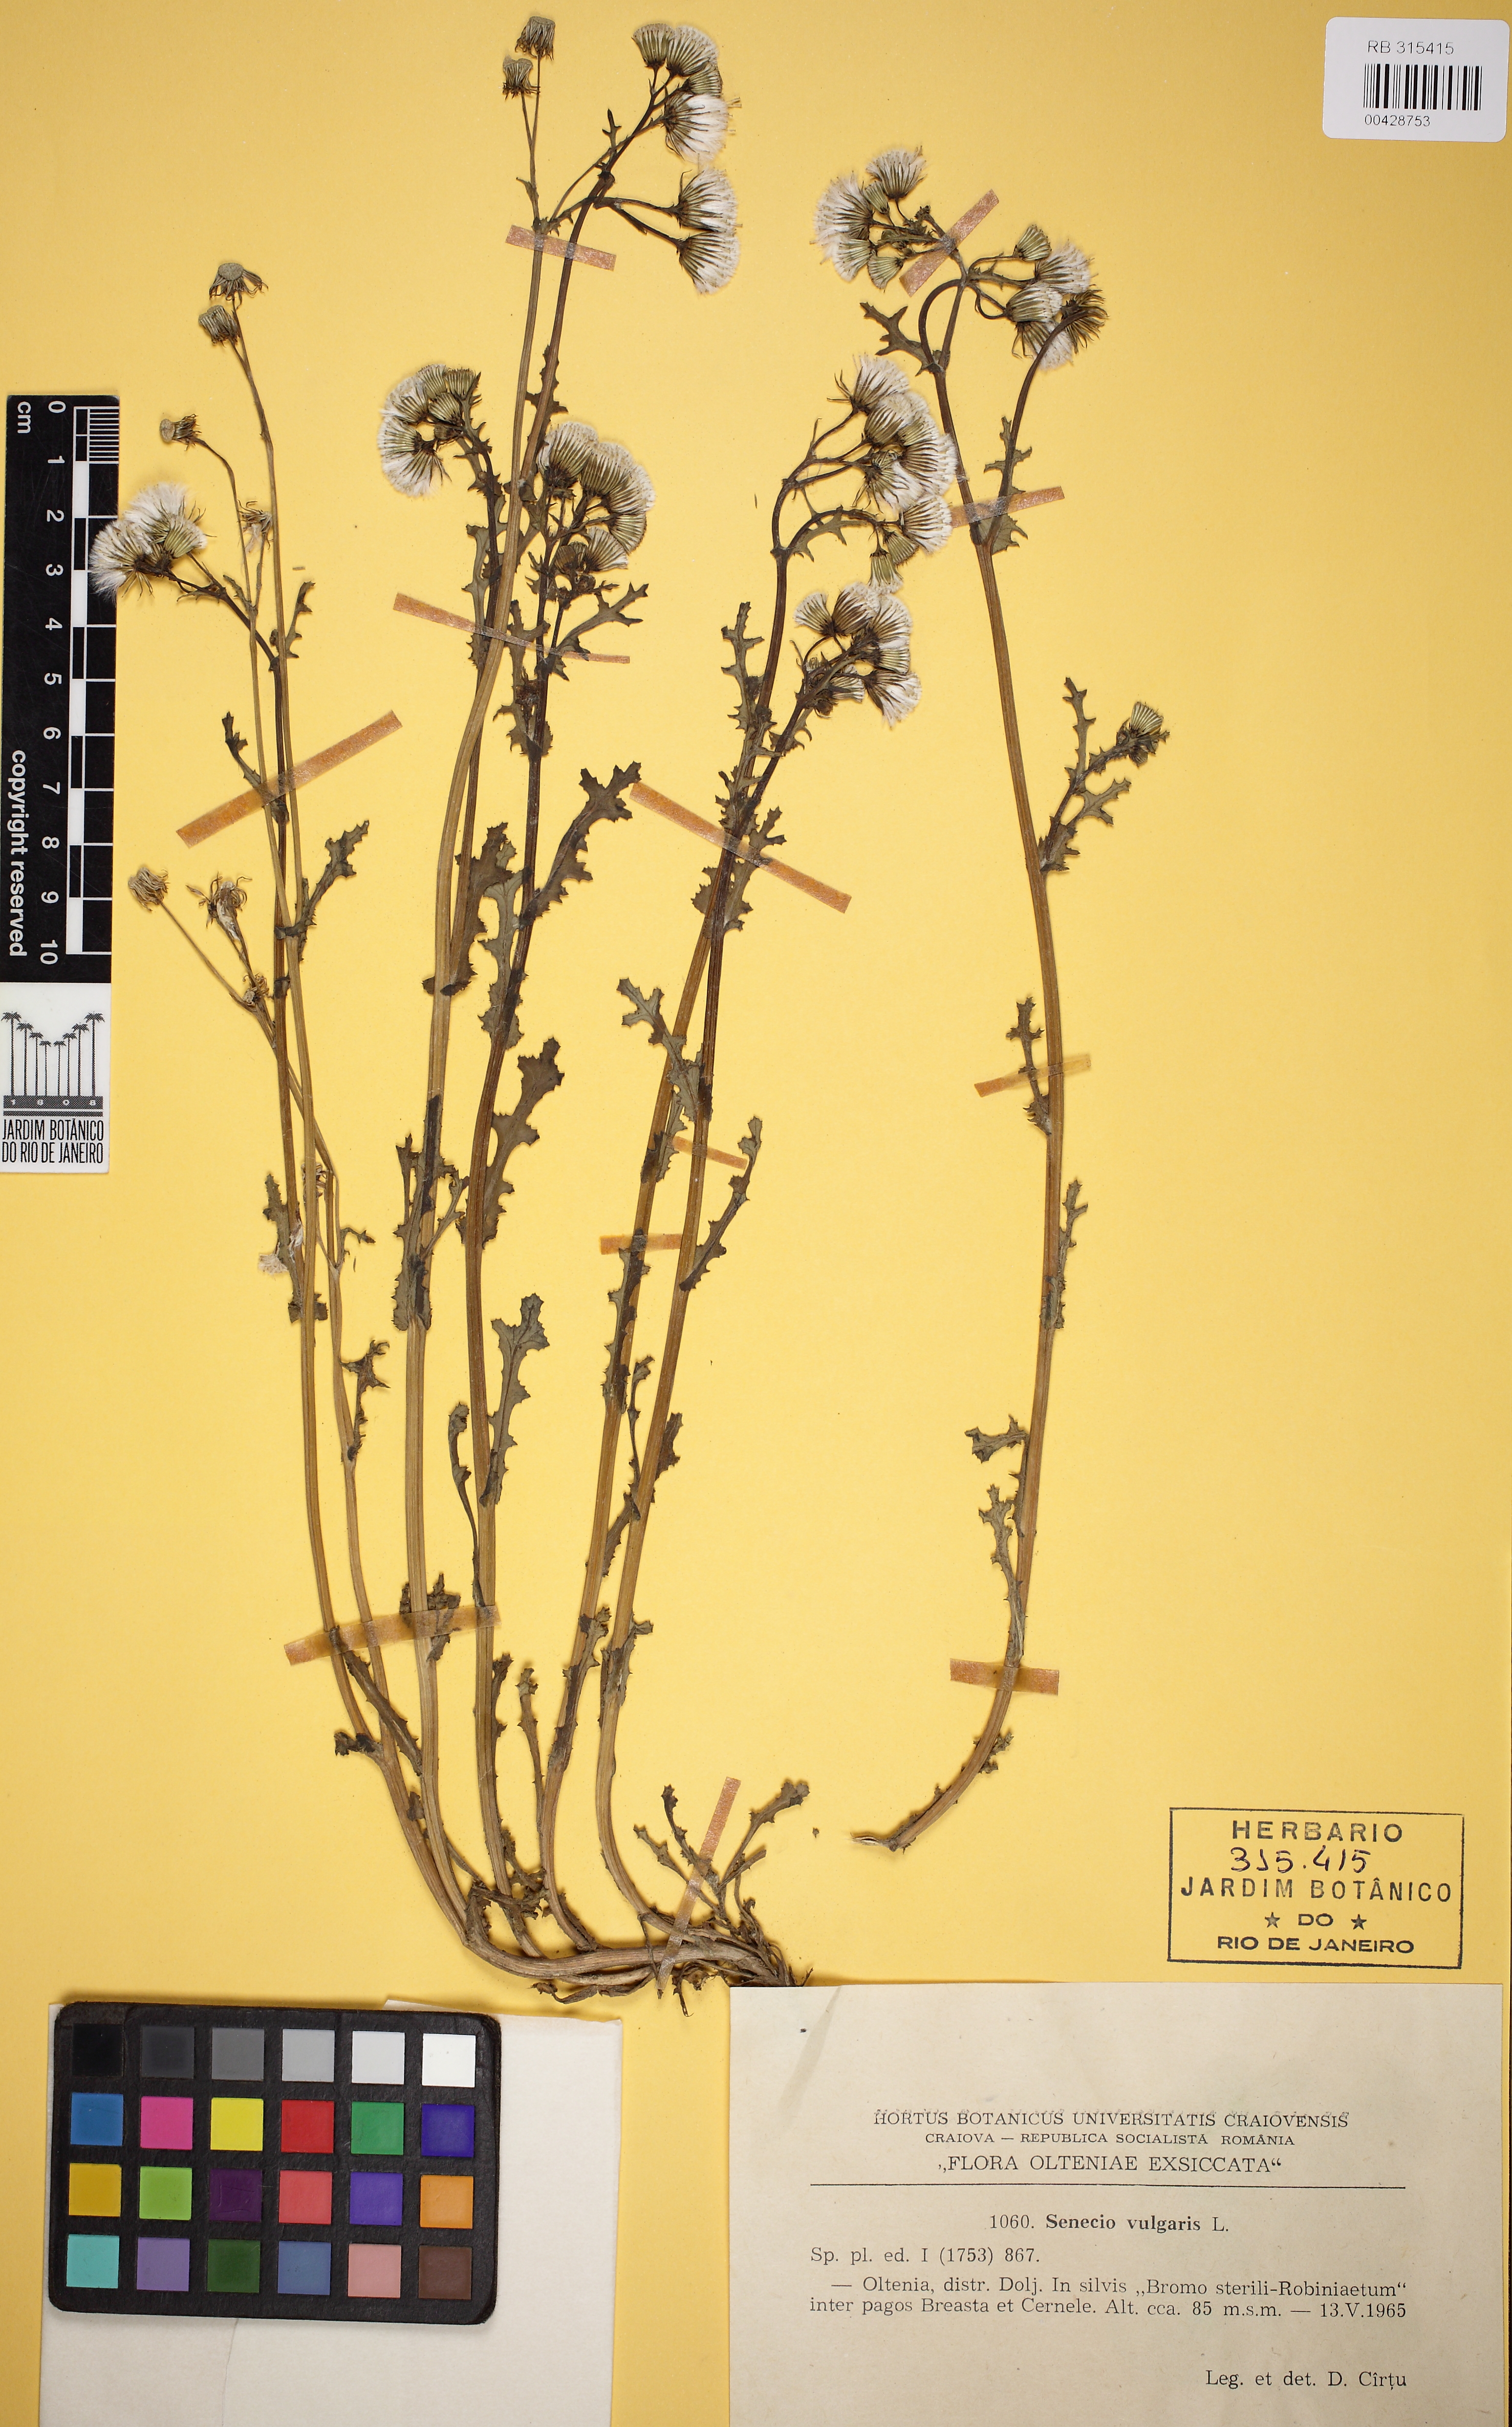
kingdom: Plantae
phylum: Tracheophyta
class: Magnoliopsida
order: Asterales
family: Asteraceae
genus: Senecio
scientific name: Senecio vulgaris
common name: Old-man-in-the-spring
